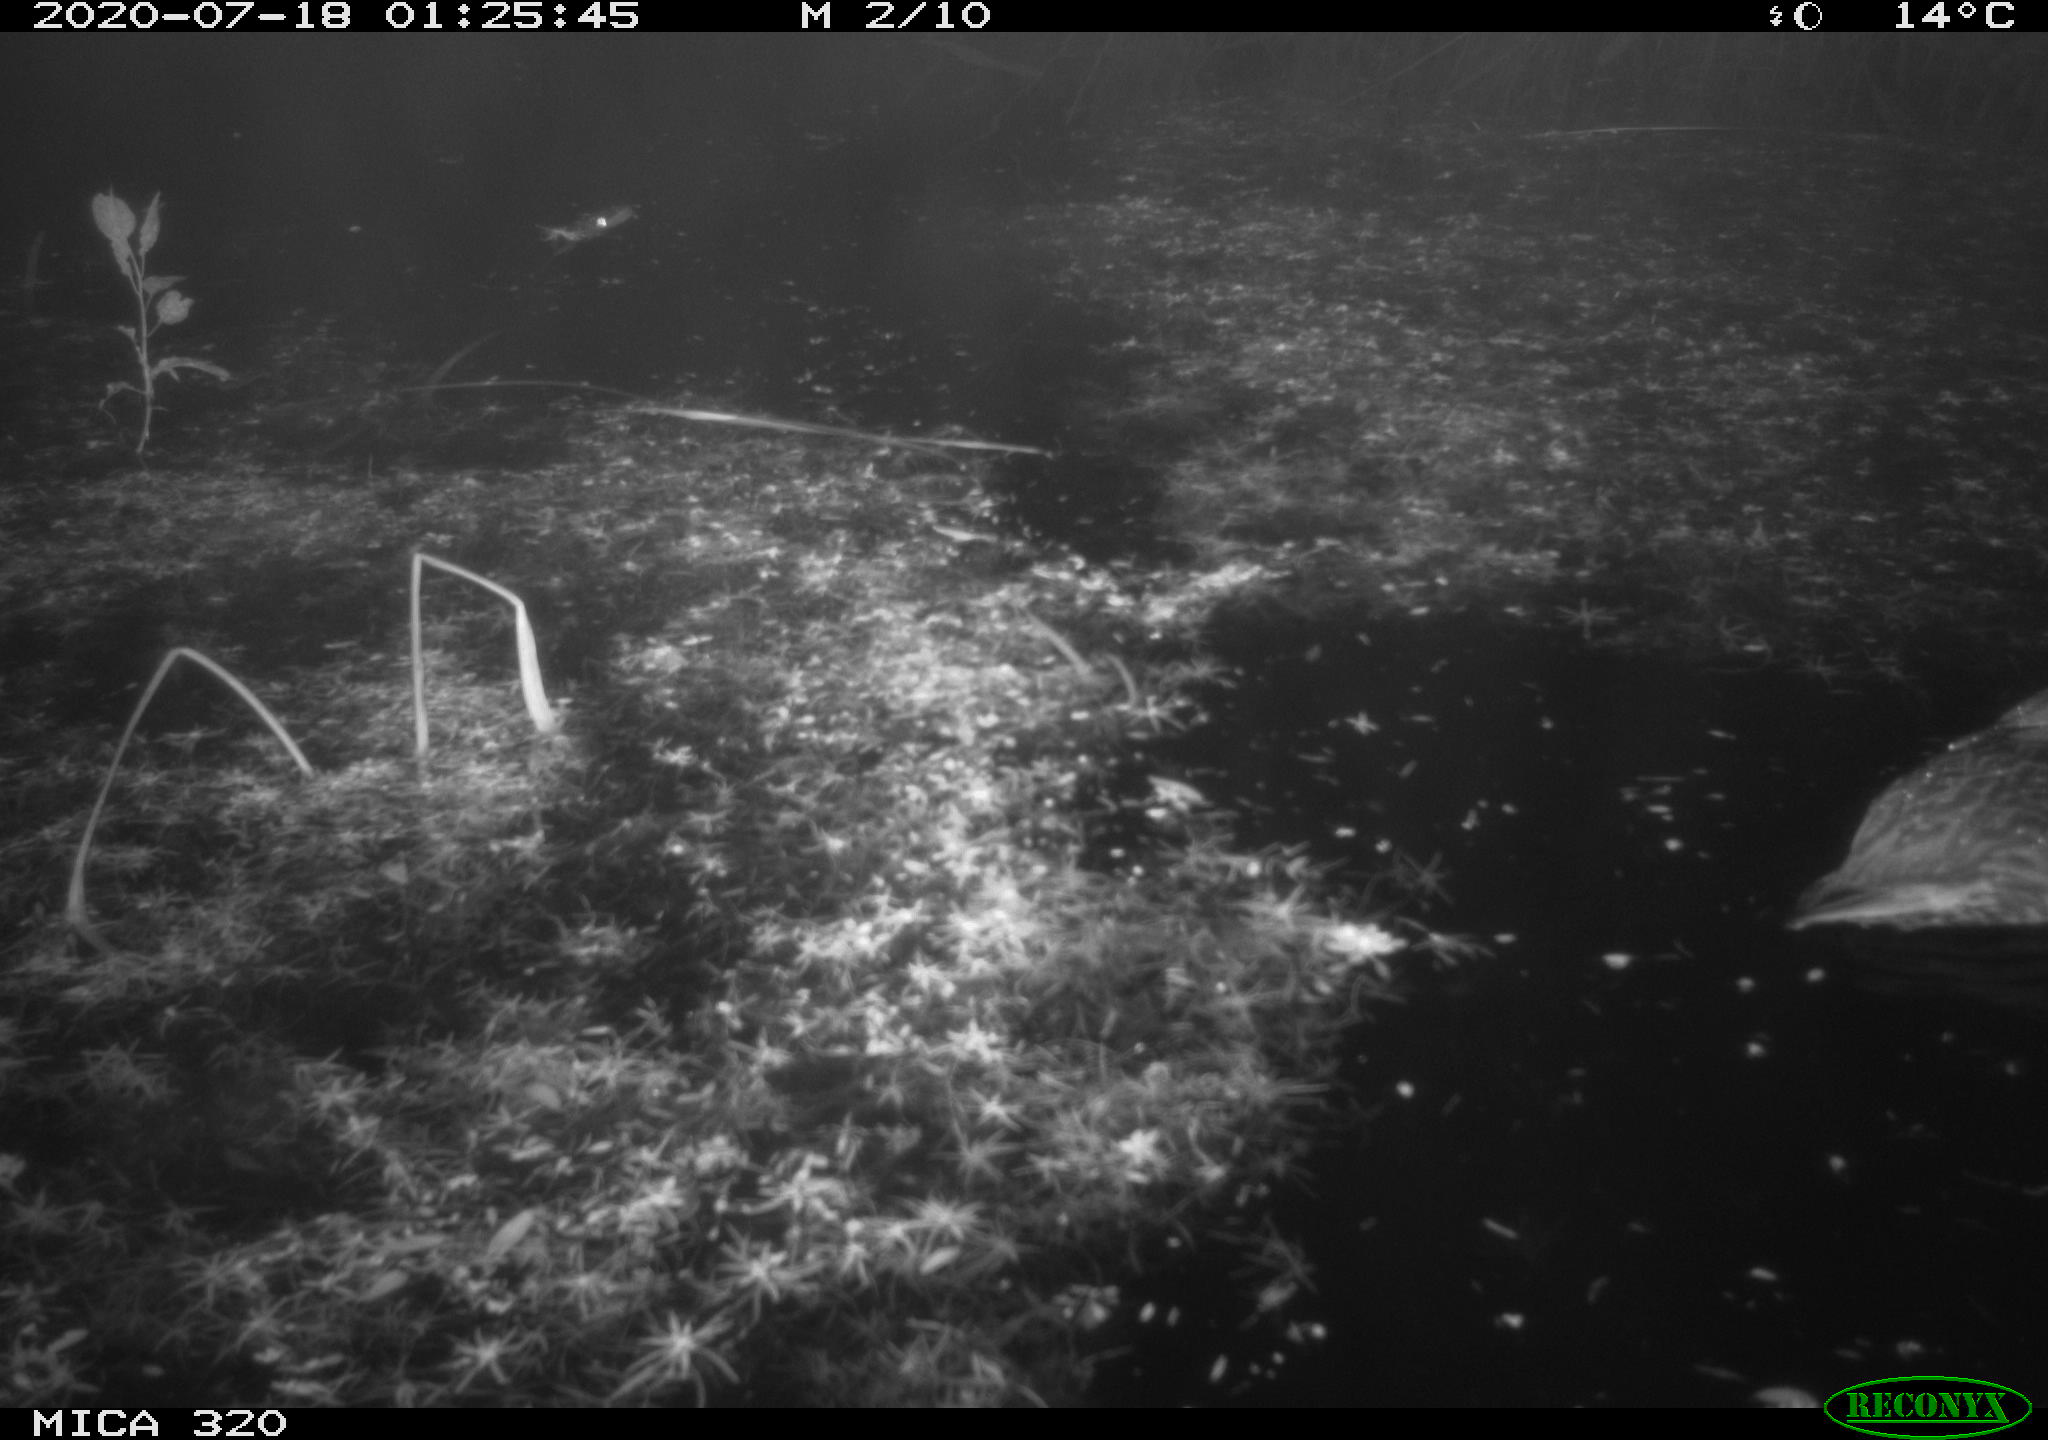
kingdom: Animalia
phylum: Chordata
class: Aves
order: Anseriformes
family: Anatidae
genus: Anas
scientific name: Anas platyrhynchos
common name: Mallard
